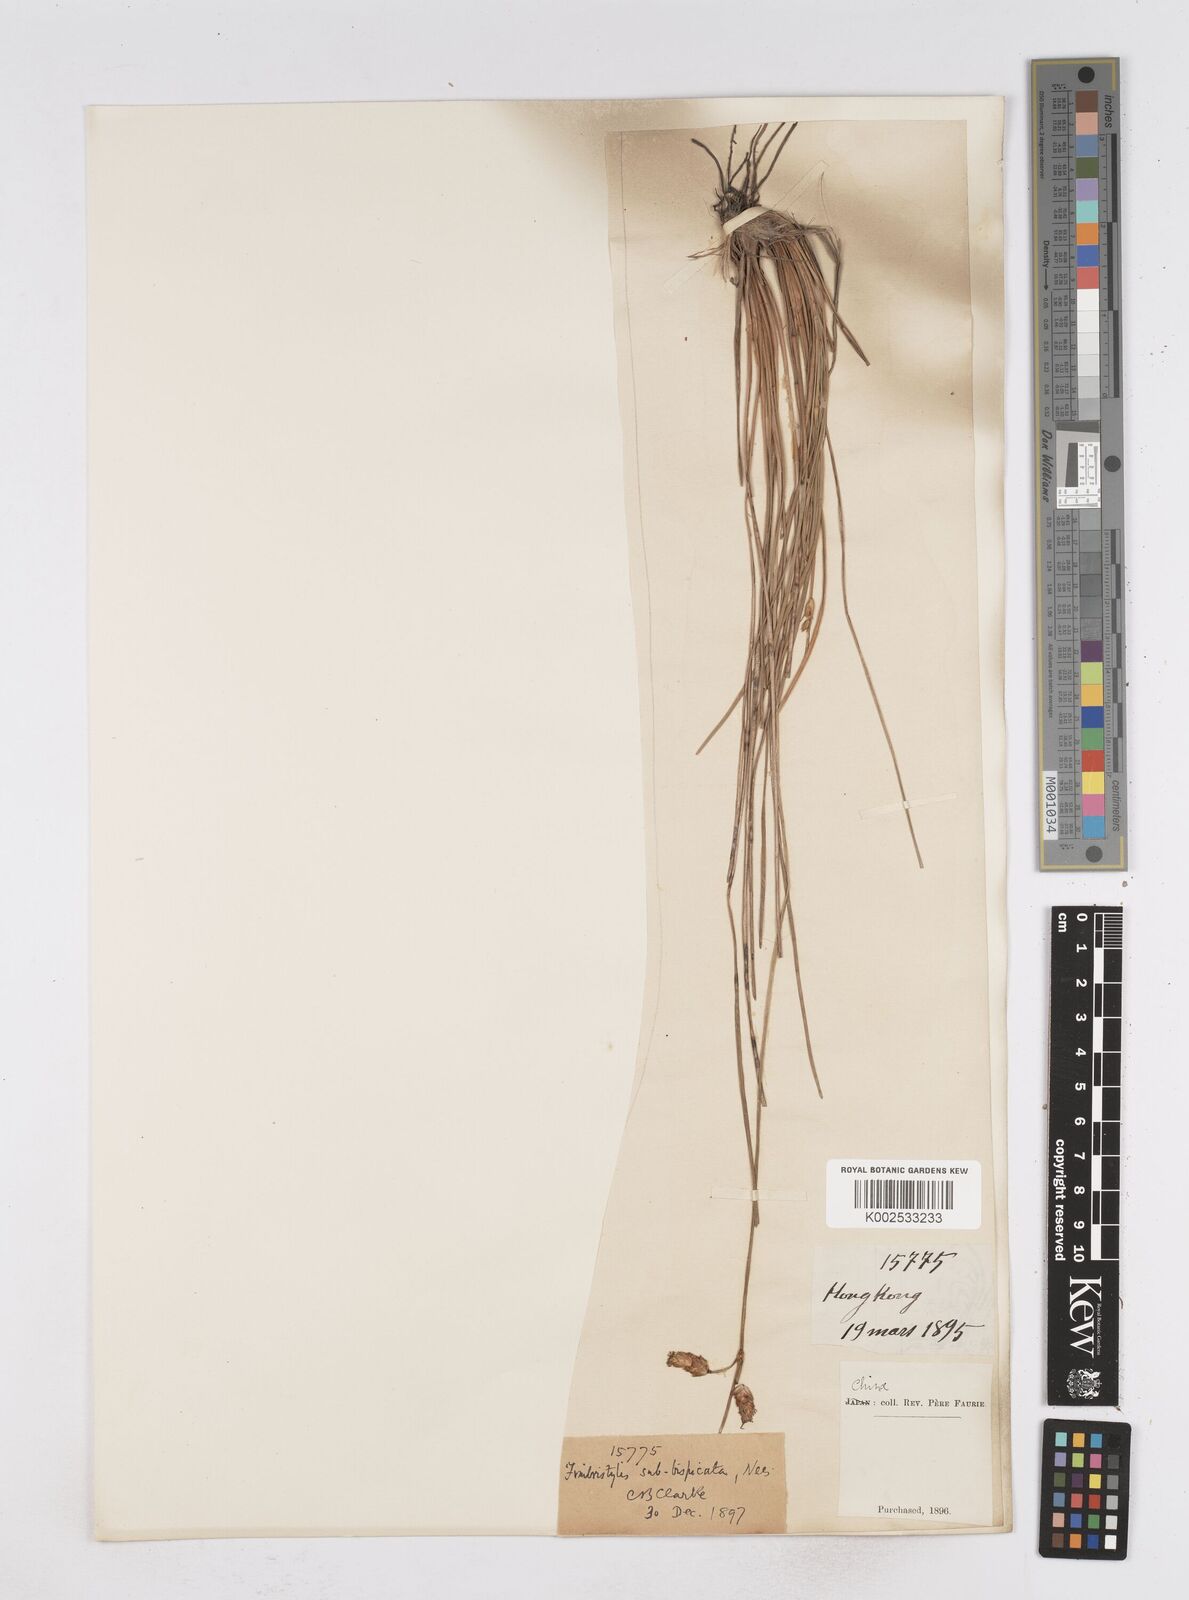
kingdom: Plantae
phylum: Tracheophyta
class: Liliopsida
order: Poales
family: Cyperaceae
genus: Fimbristylis
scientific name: Fimbristylis tristachya
